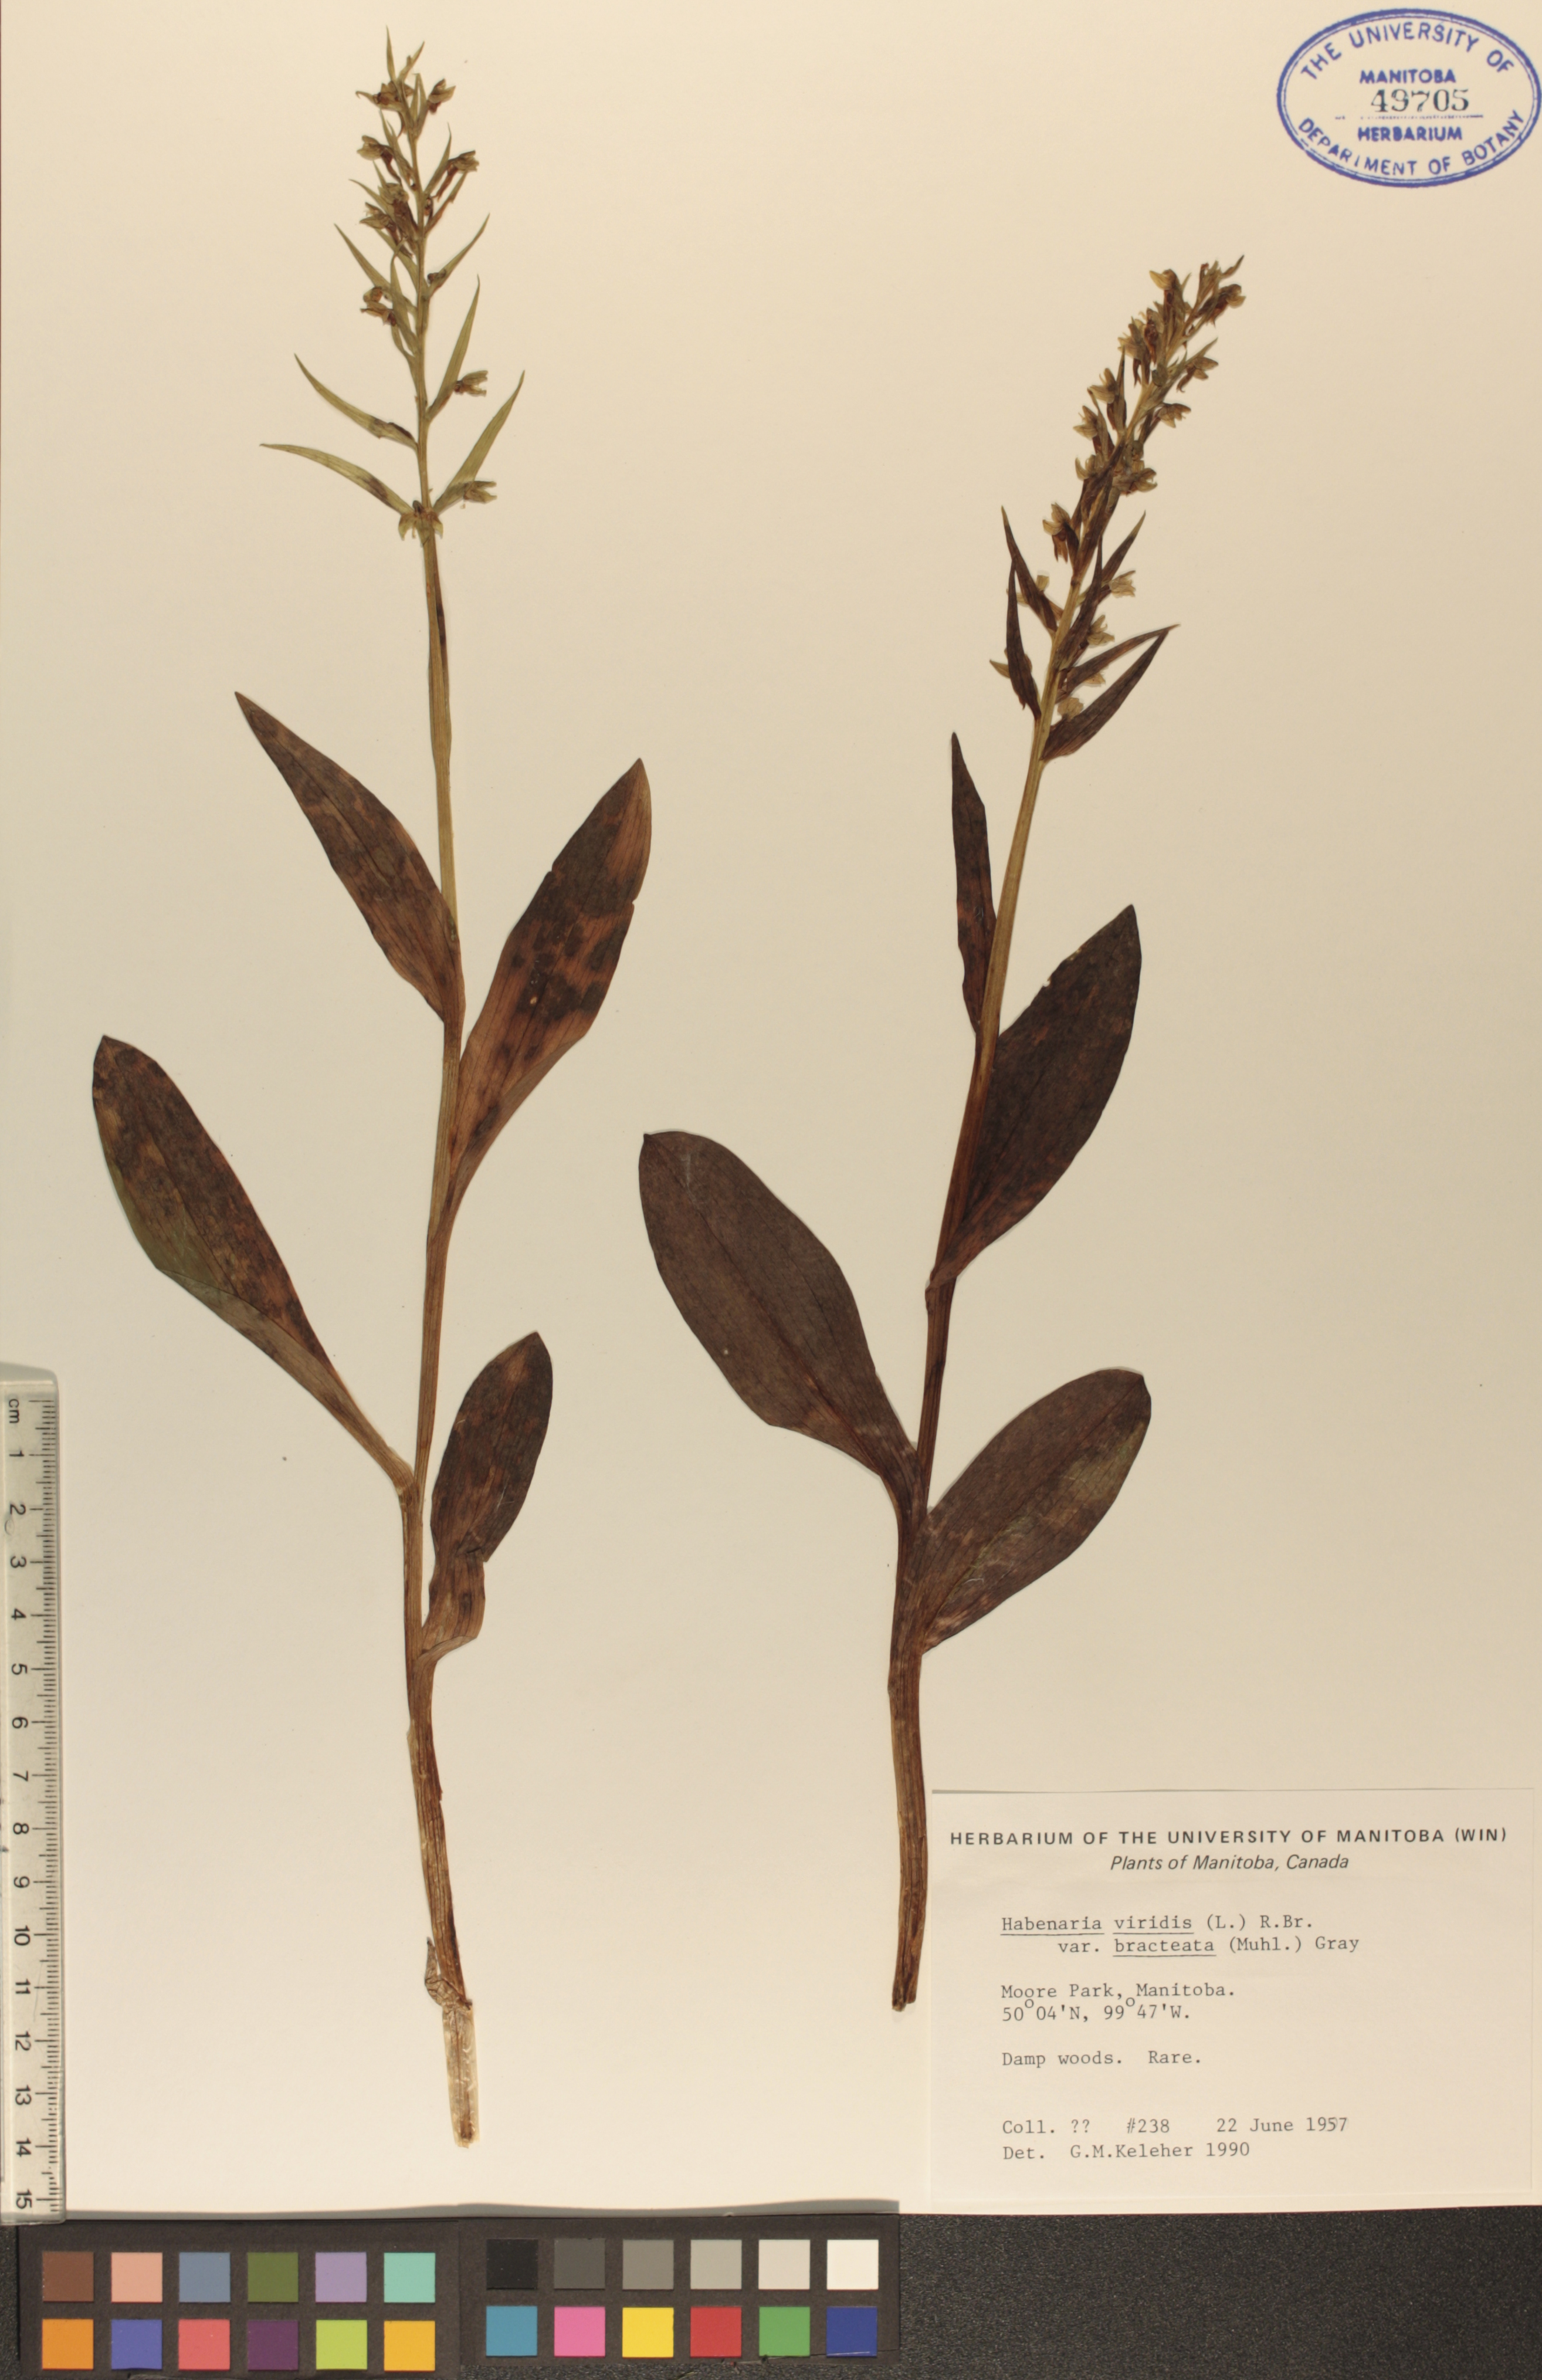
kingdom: Plantae
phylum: Tracheophyta
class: Liliopsida
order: Asparagales
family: Orchidaceae
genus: Dactylorhiza
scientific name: Dactylorhiza viridis
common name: Longbract frog orchid
